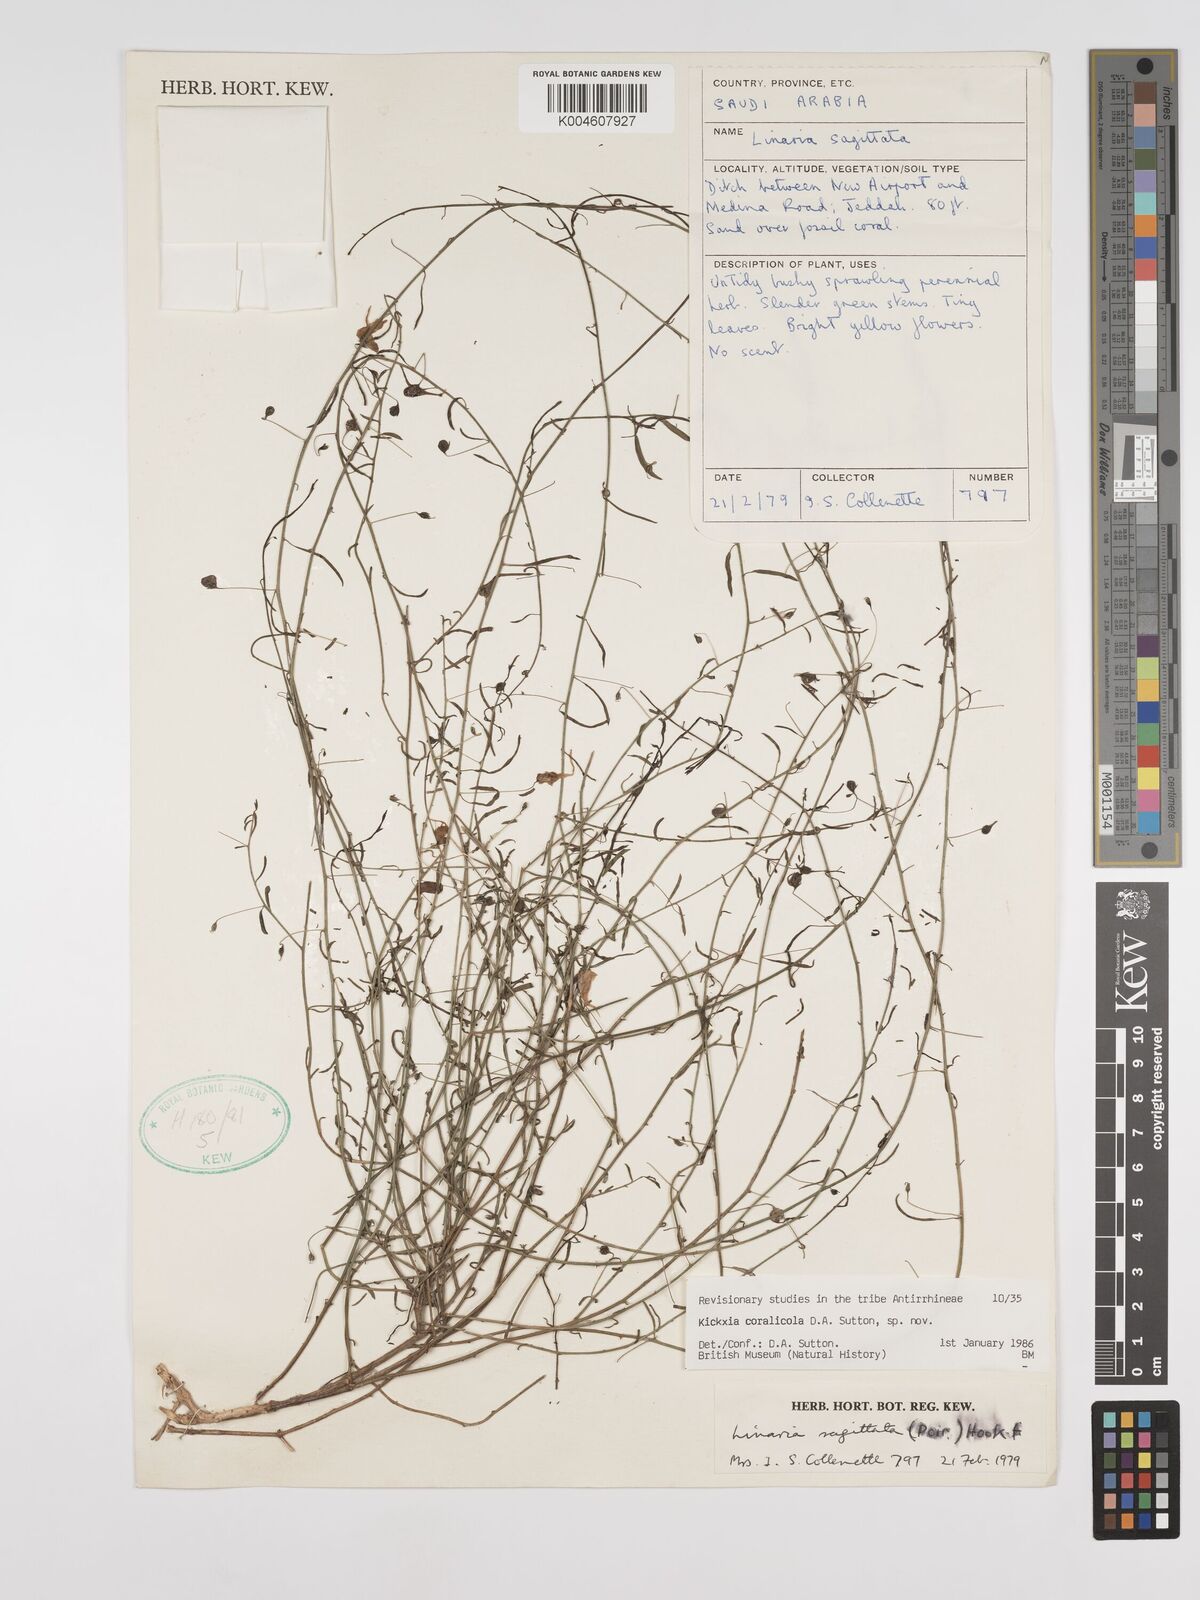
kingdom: Plantae
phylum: Tracheophyta
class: Magnoliopsida
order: Lamiales
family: Plantaginaceae
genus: Kickxia
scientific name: Kickxia corallicola
